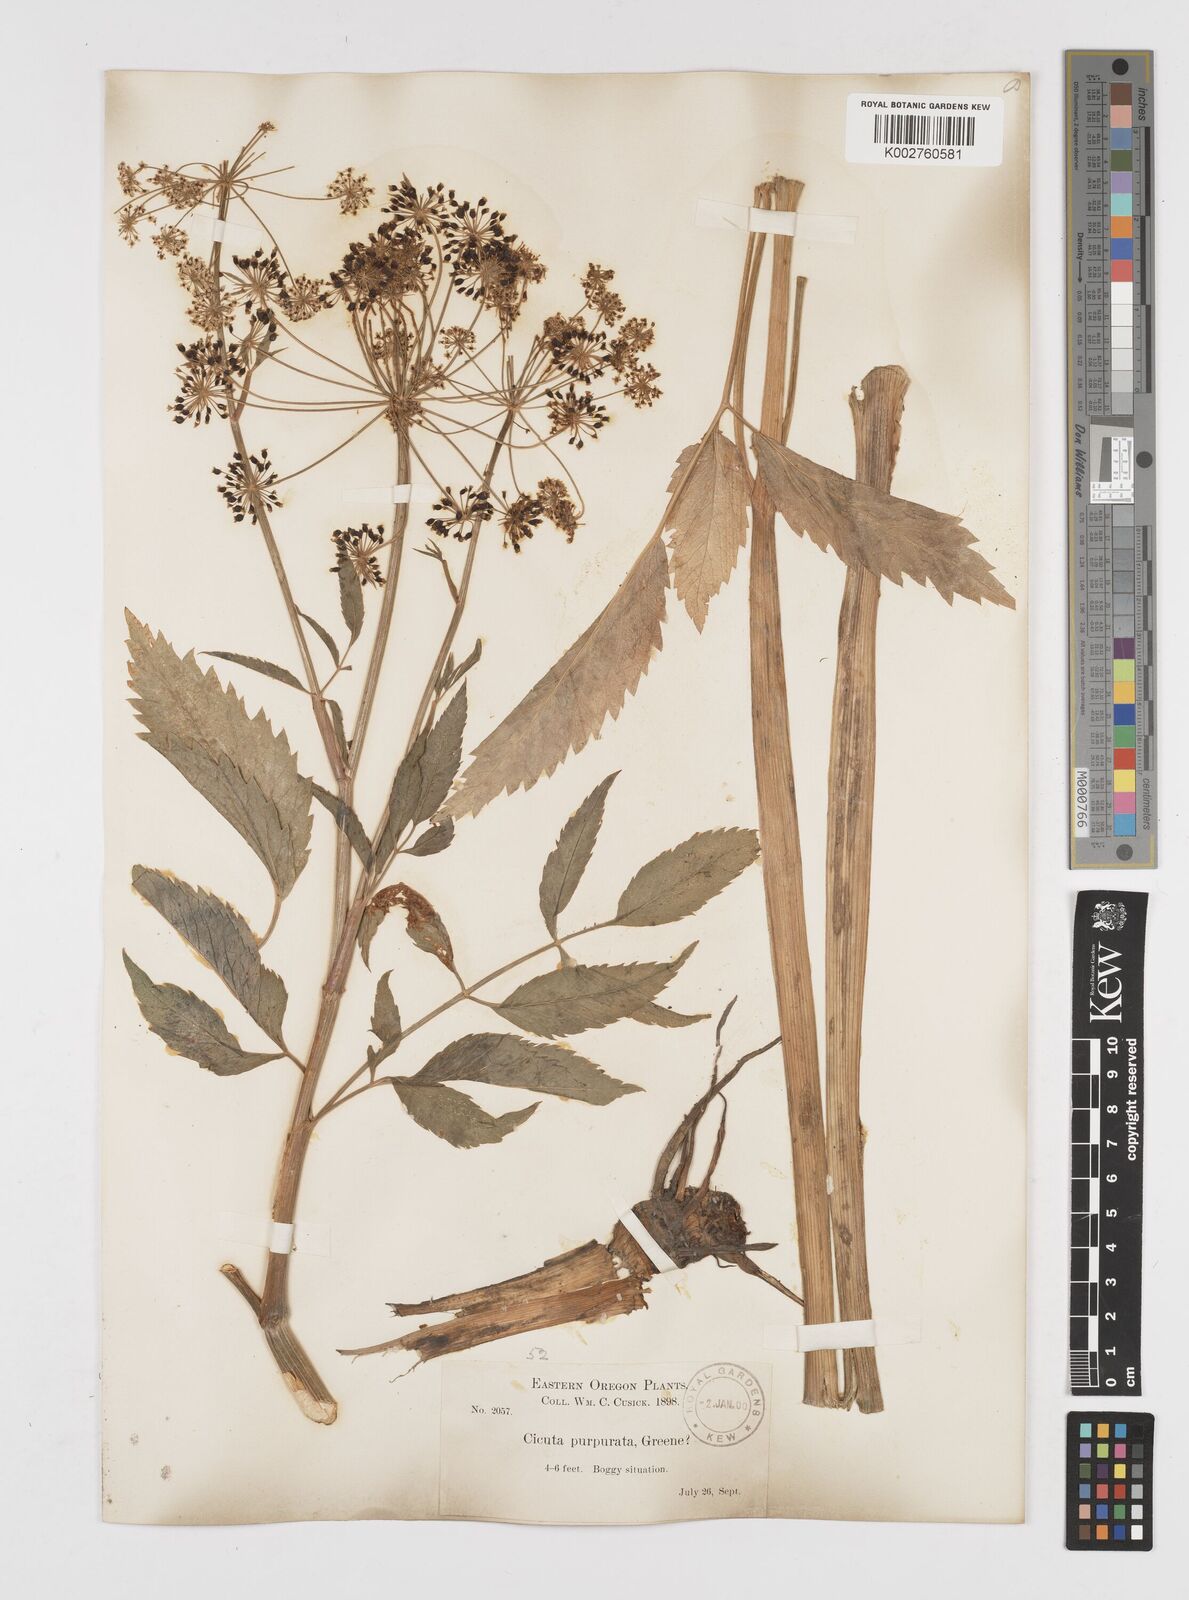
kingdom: Plantae
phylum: Tracheophyta
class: Magnoliopsida
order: Apiales
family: Apiaceae
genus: Cicuta
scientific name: Cicuta douglasii
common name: Western water-hemlock
